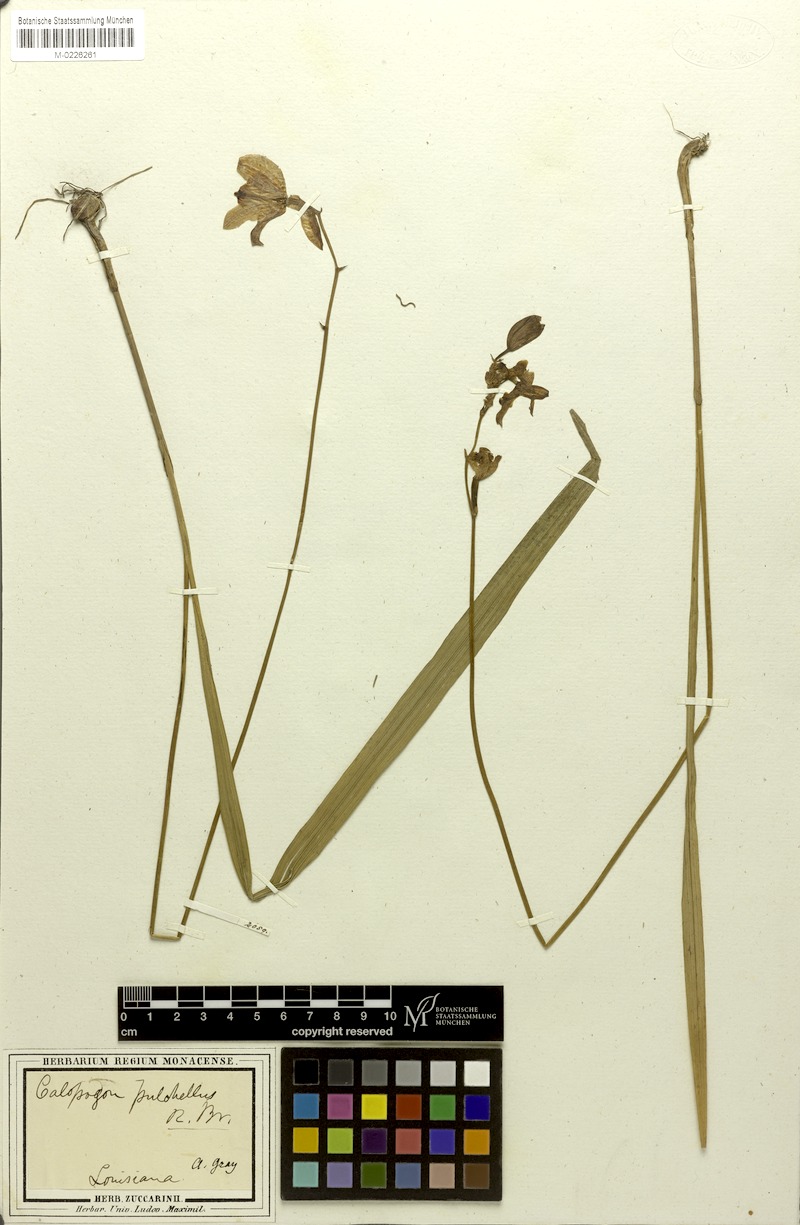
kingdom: Plantae
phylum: Tracheophyta
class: Liliopsida
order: Asparagales
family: Orchidaceae
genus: Calopogon
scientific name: Calopogon tuberosus
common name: Grass-pink
